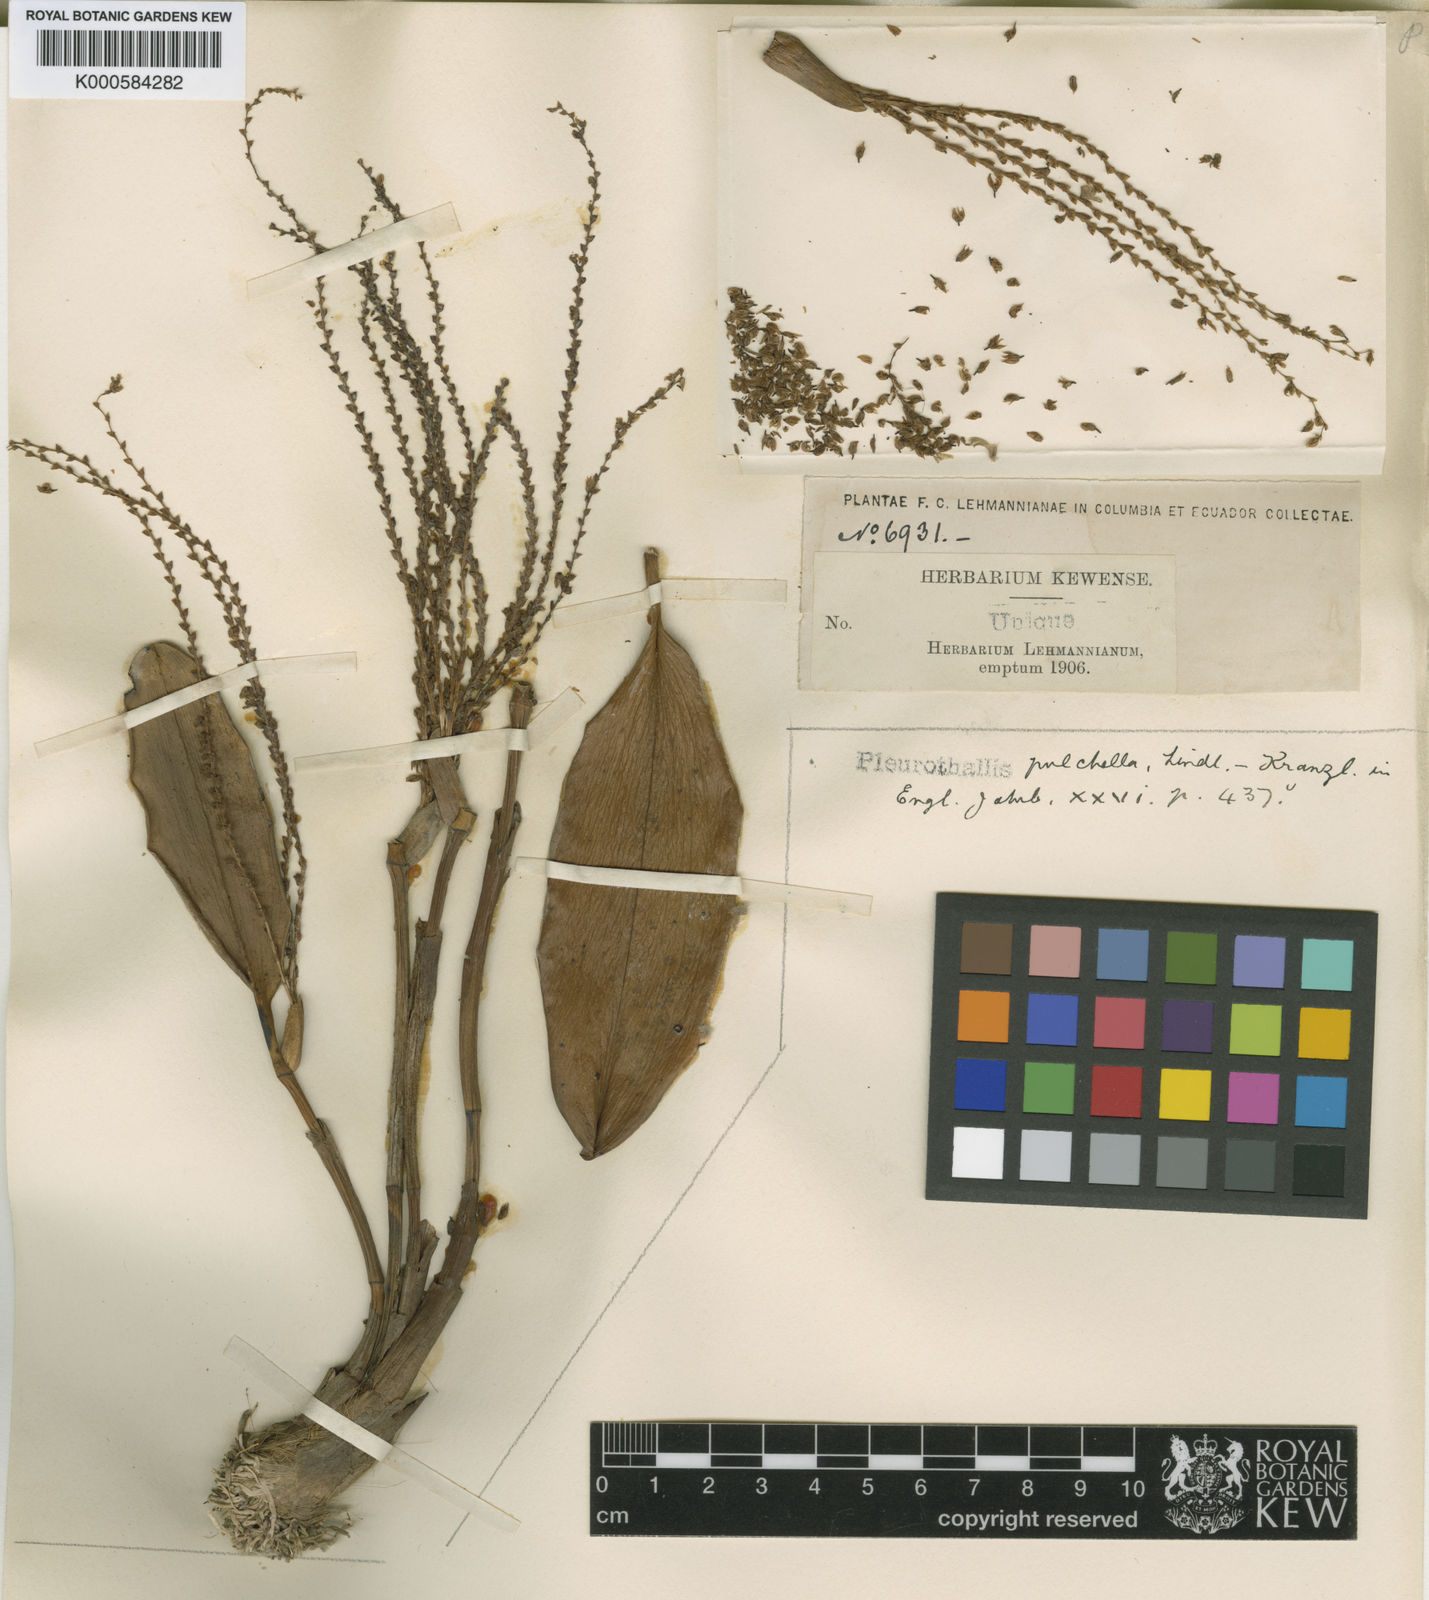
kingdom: Plantae
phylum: Tracheophyta
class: Liliopsida
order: Asparagales
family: Orchidaceae
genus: Acianthera
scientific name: Acianthera erinacea
